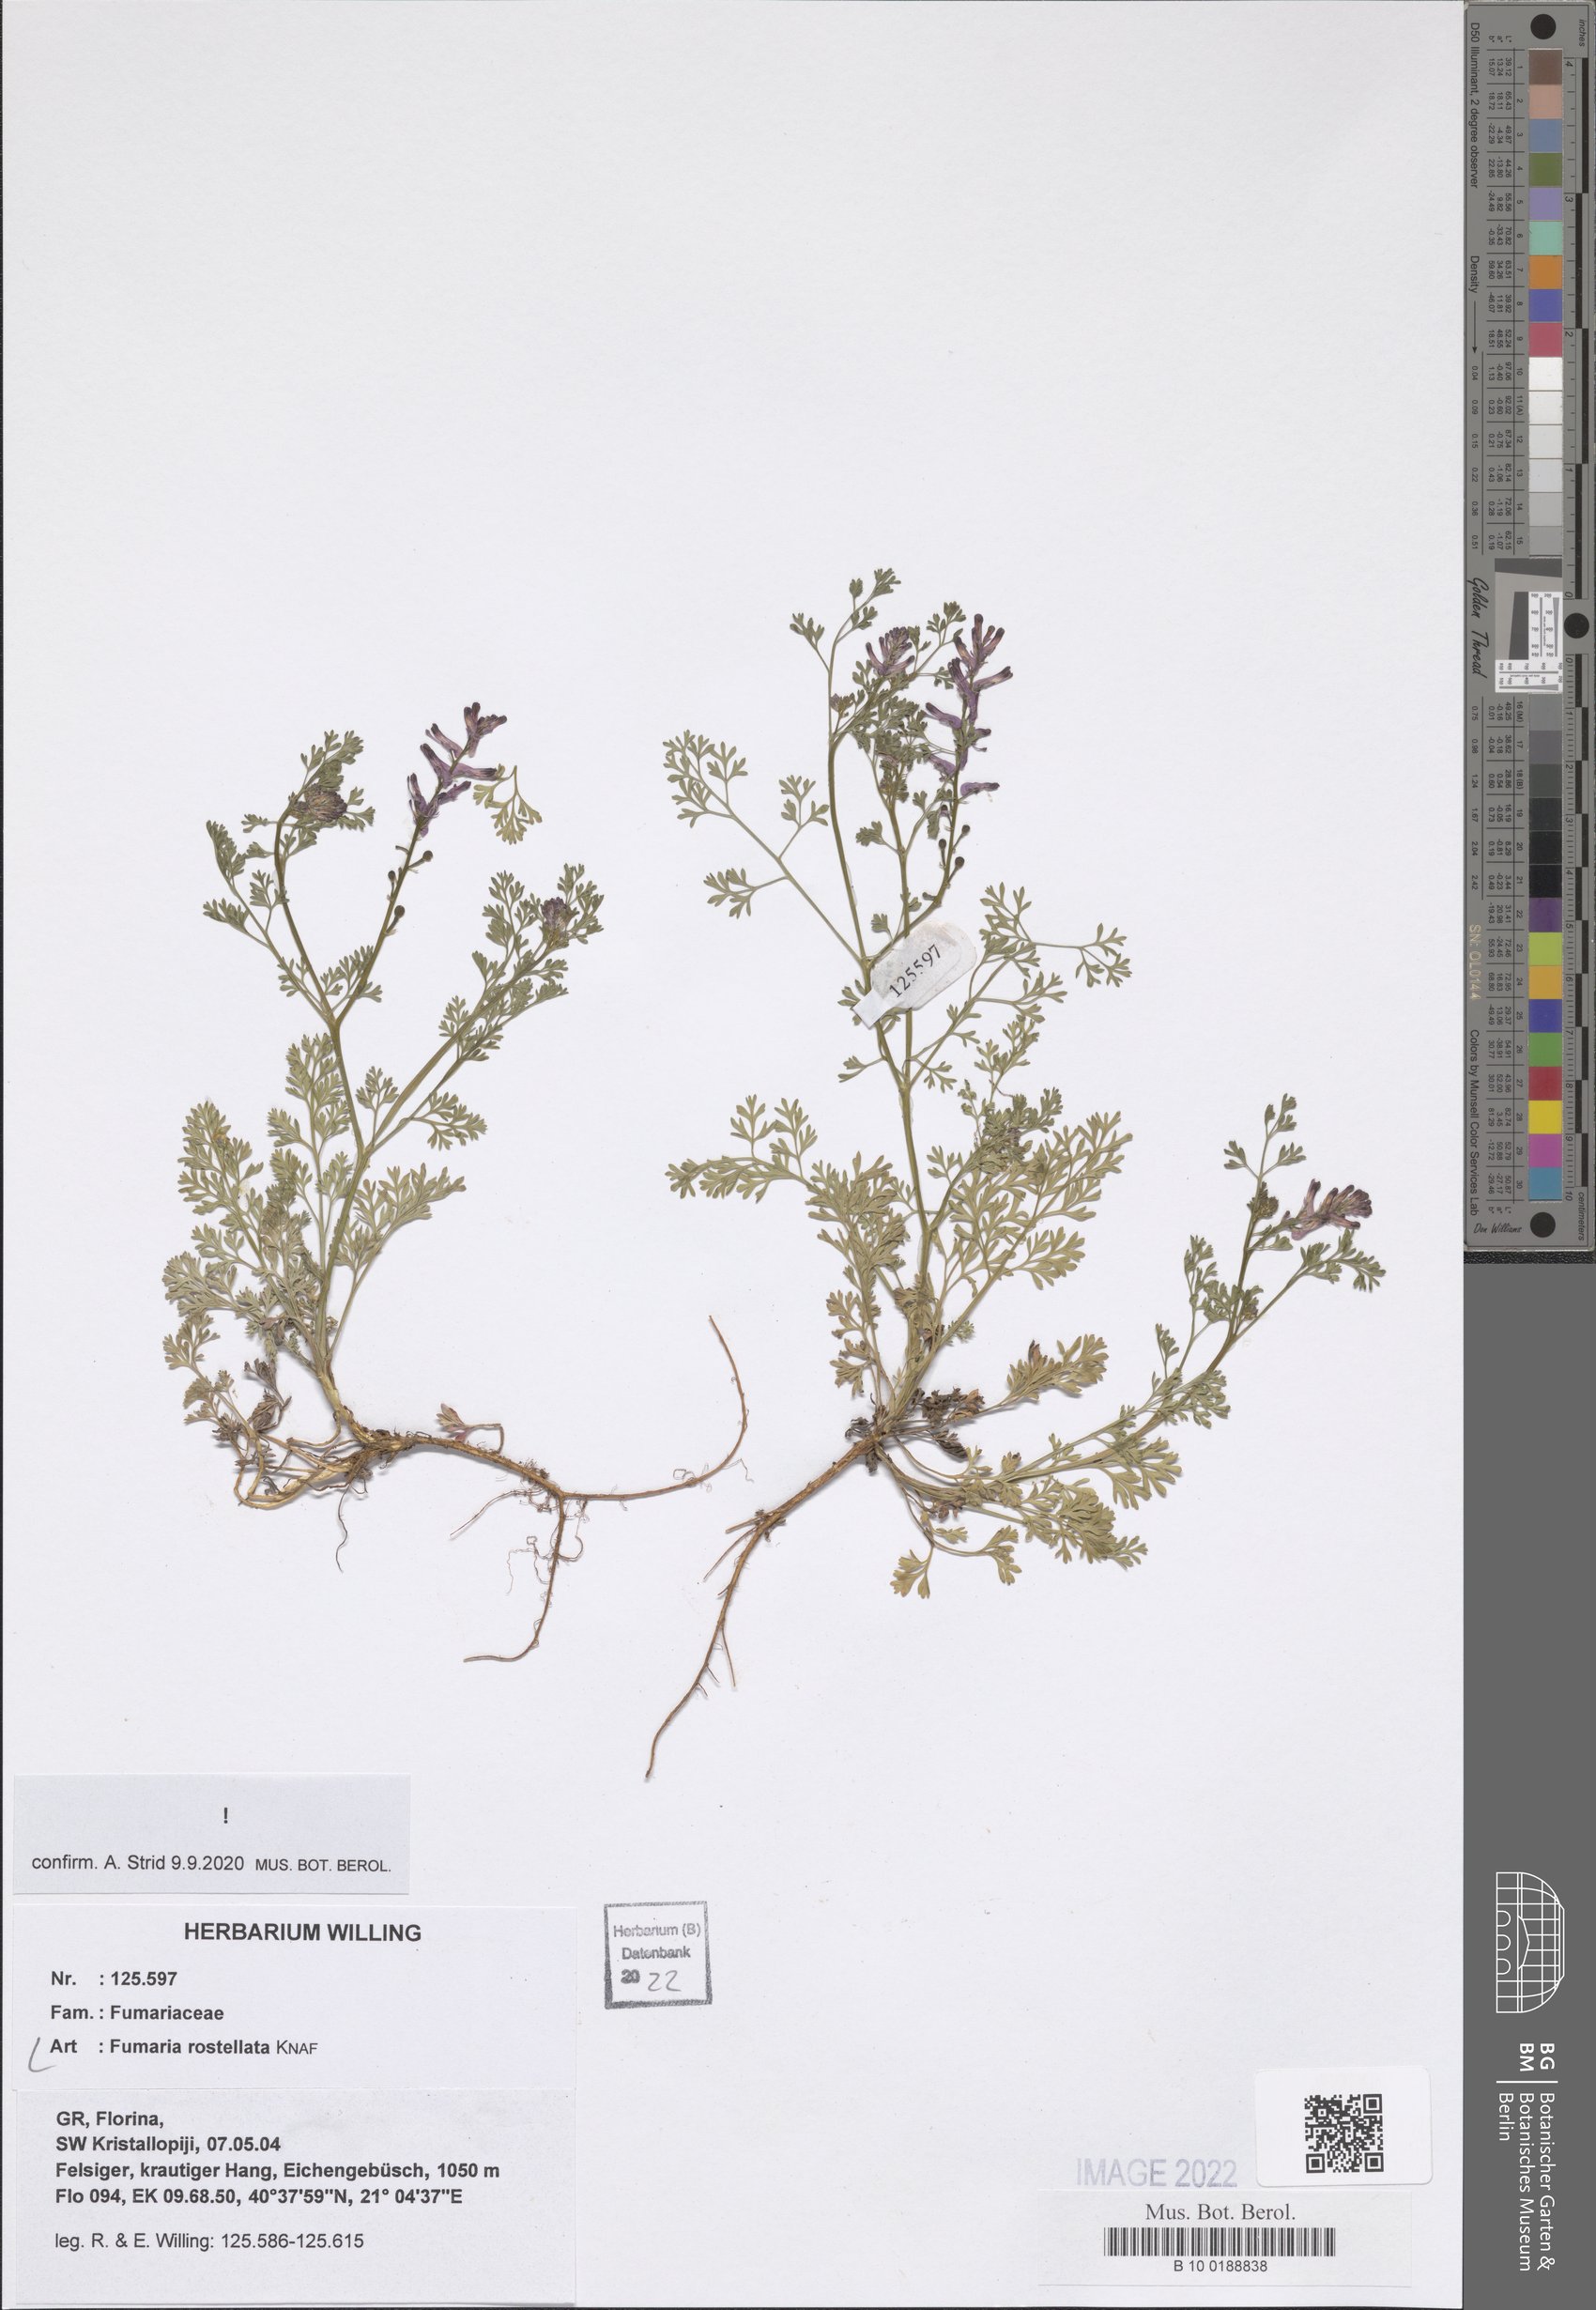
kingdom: Plantae
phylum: Tracheophyta
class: Magnoliopsida
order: Ranunculales
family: Papaveraceae
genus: Fumaria
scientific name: Fumaria rostellata
